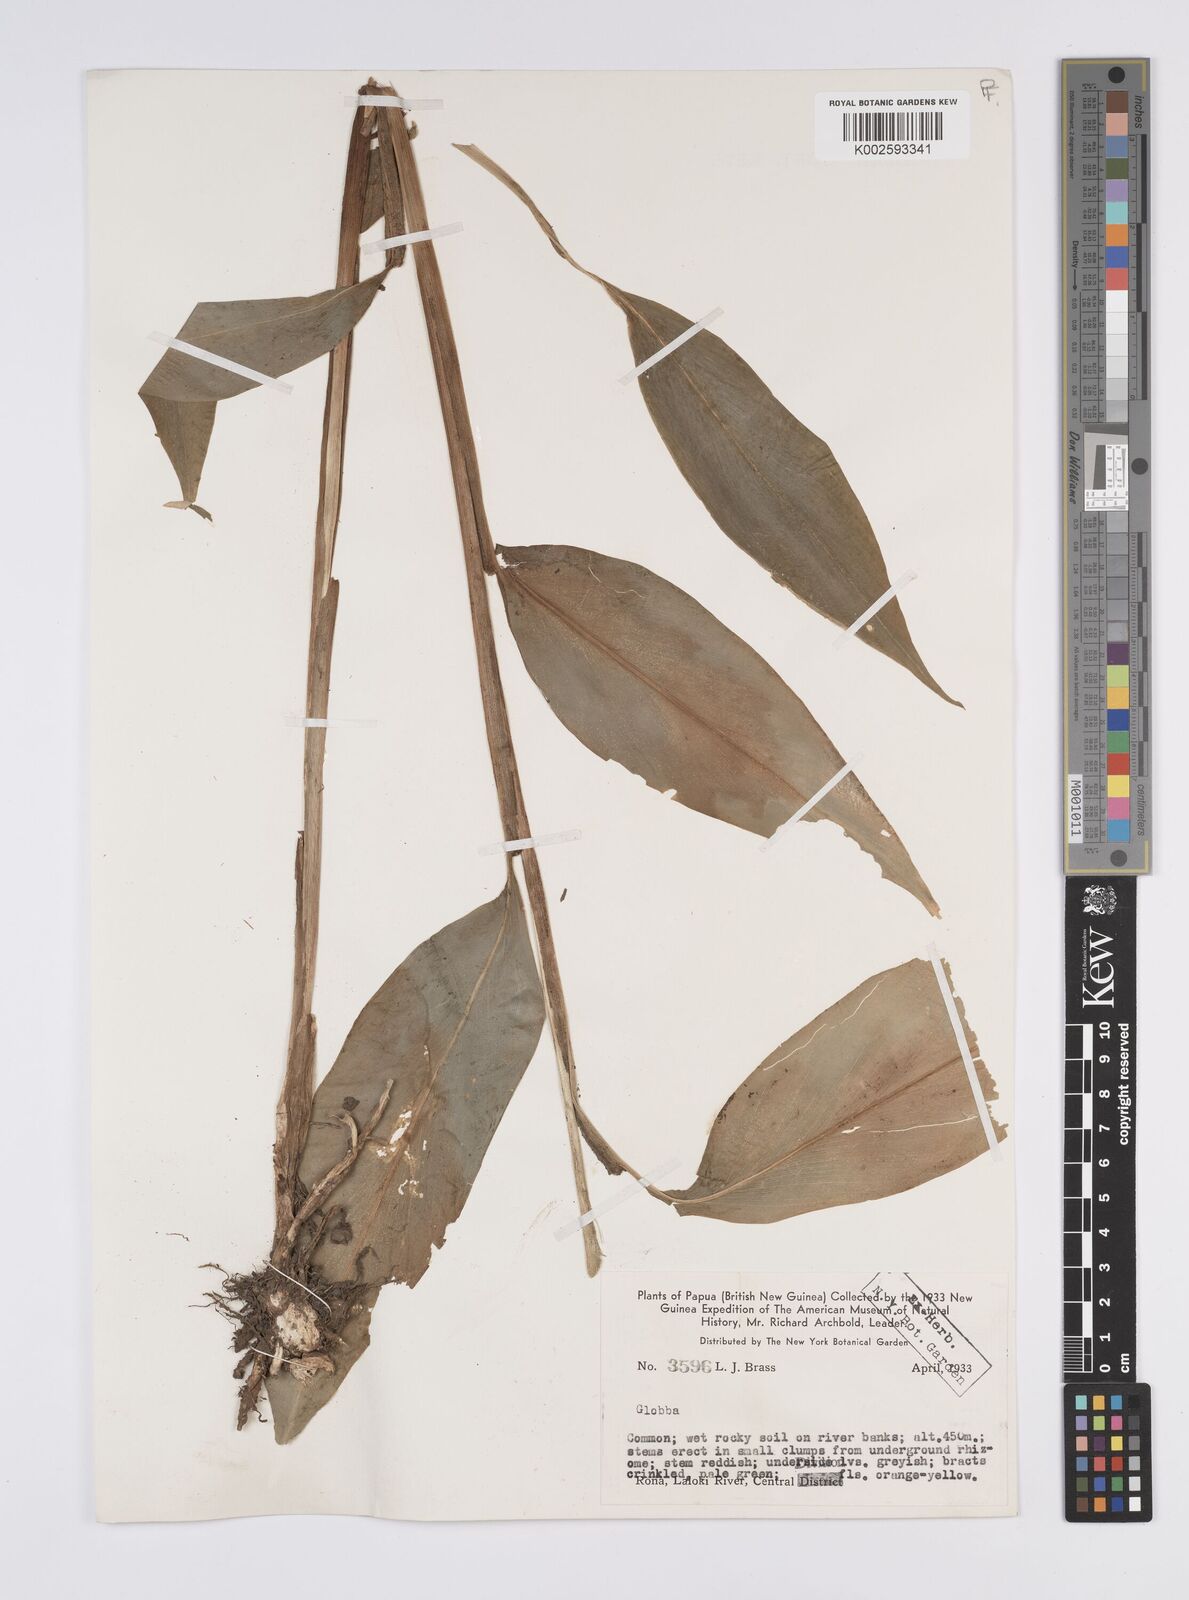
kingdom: Plantae
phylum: Tracheophyta
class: Liliopsida
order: Zingiberales
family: Zingiberaceae
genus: Globba
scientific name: Globba
